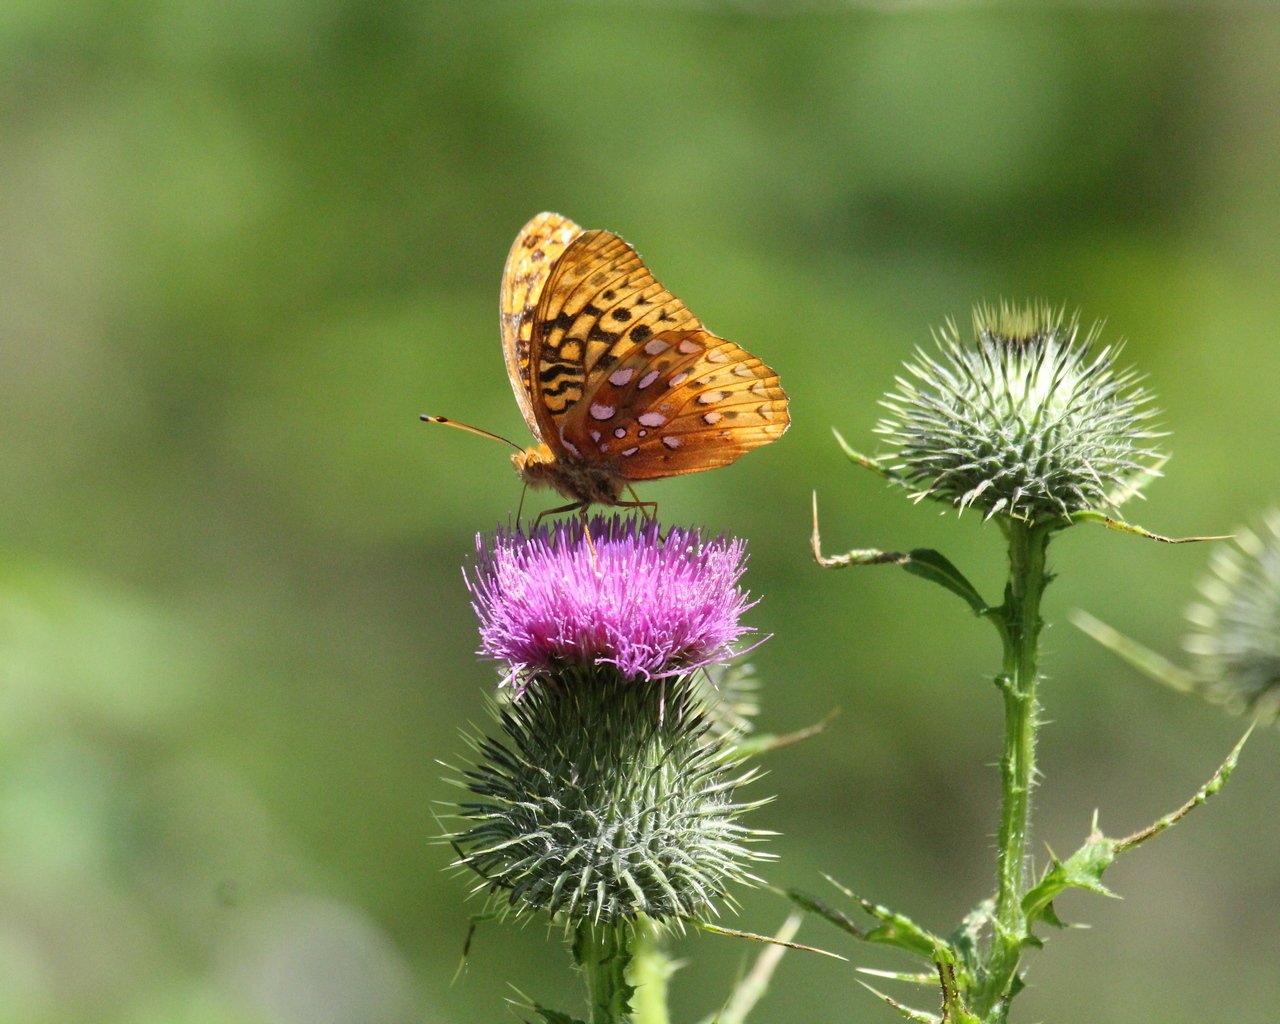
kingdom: Animalia
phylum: Arthropoda
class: Insecta
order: Lepidoptera
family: Nymphalidae
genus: Speyeria
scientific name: Speyeria cybele
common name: Great Spangled Fritillary
